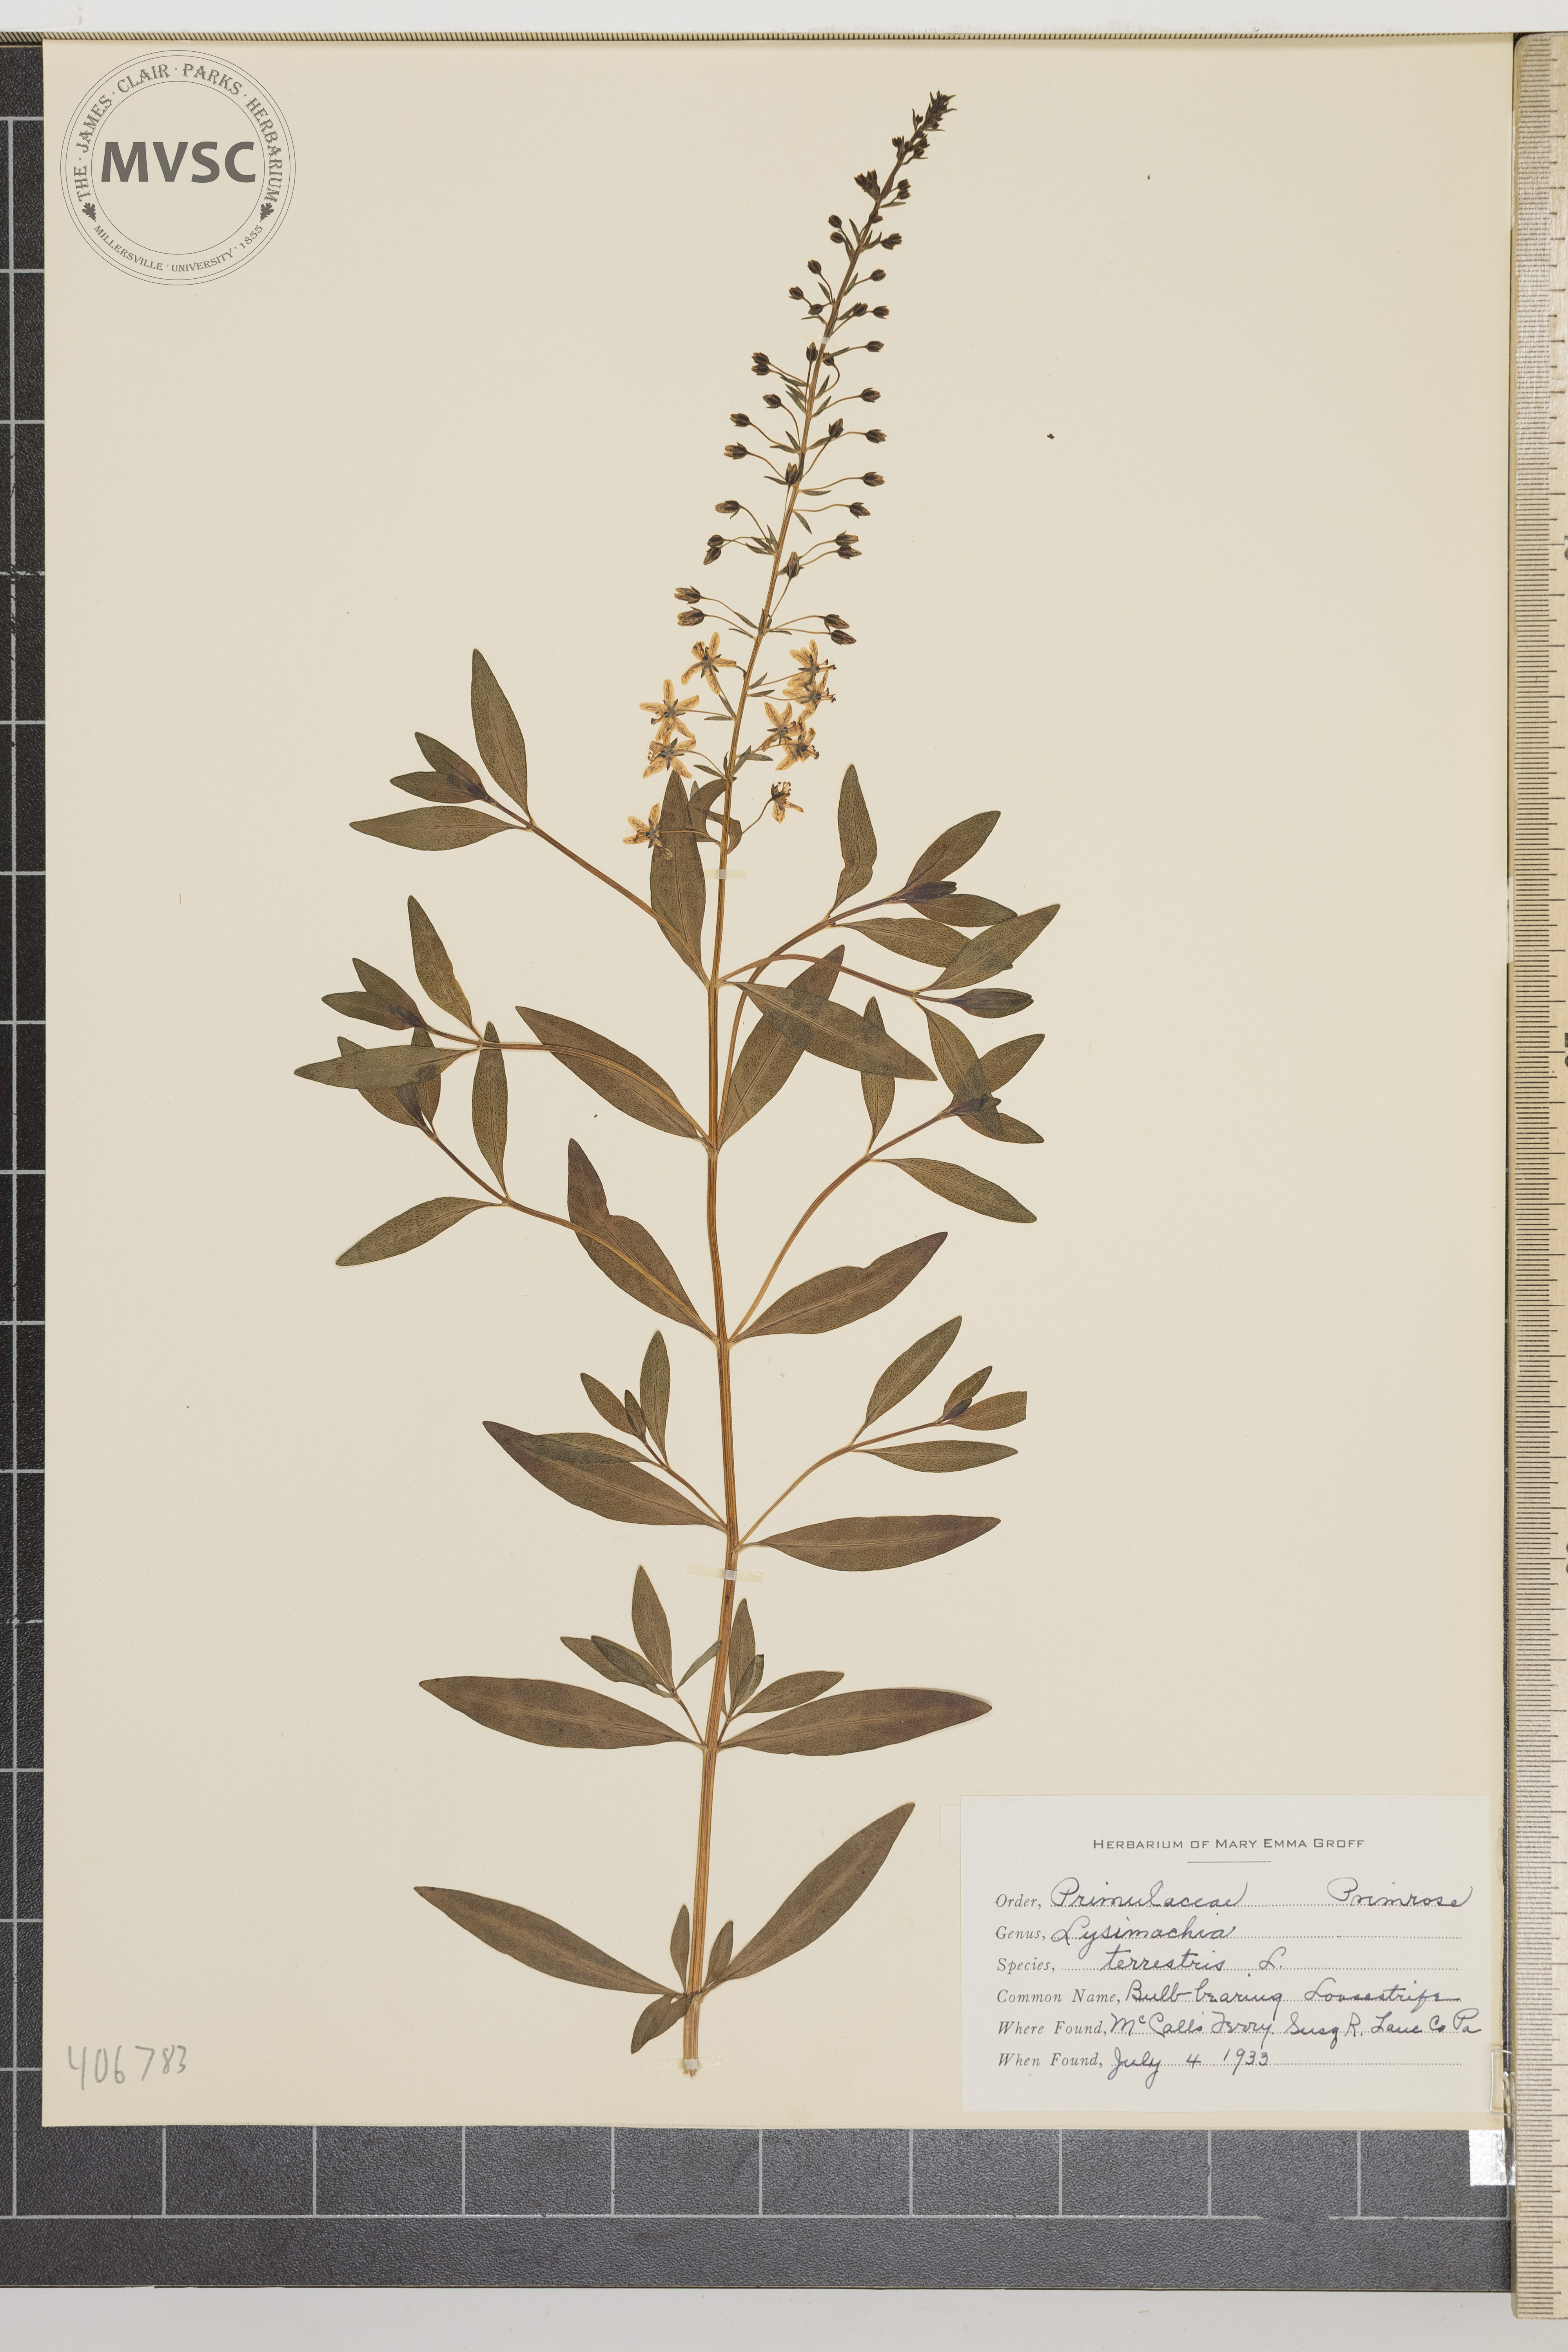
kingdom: Plantae
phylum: Tracheophyta
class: Magnoliopsida
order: Ericales
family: Primulaceae
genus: Lysimachia
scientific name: Lysimachia terrestris
